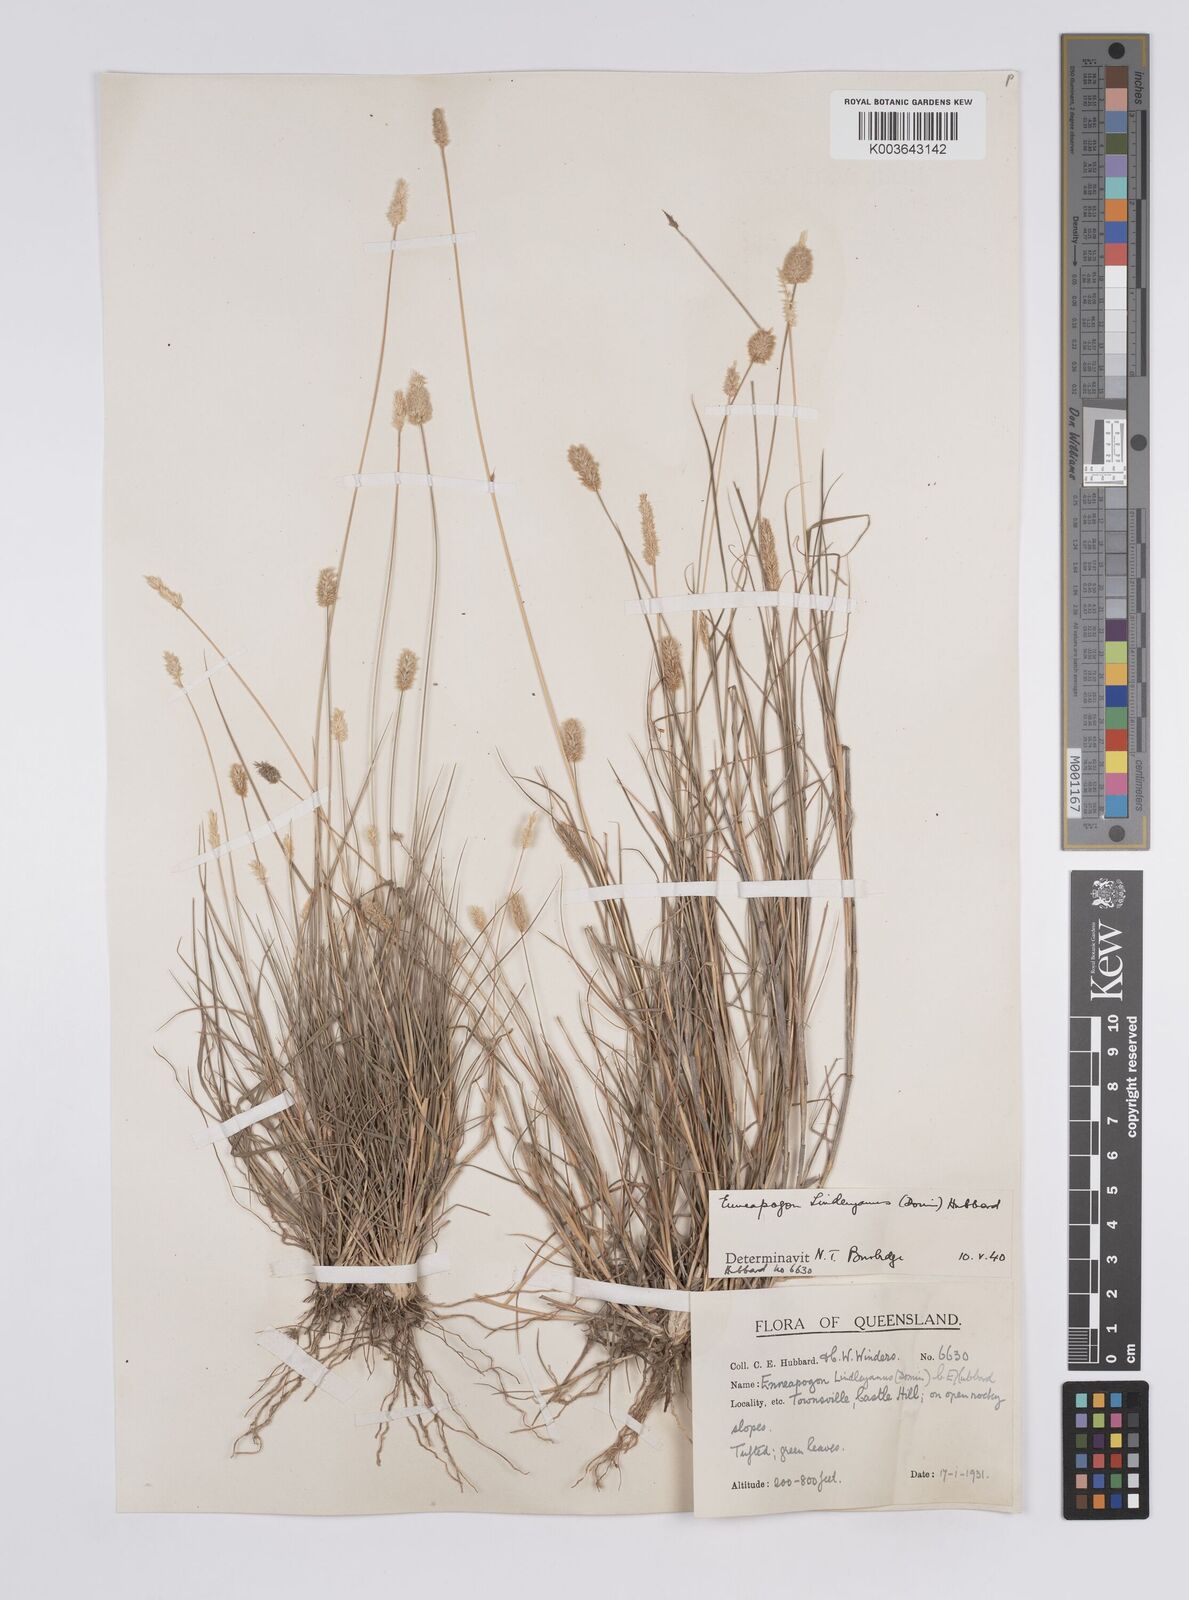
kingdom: Plantae
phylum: Tracheophyta
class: Liliopsida
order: Poales
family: Poaceae
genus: Enneapogon
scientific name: Enneapogon lindleyanus
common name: Conetop nineawn
